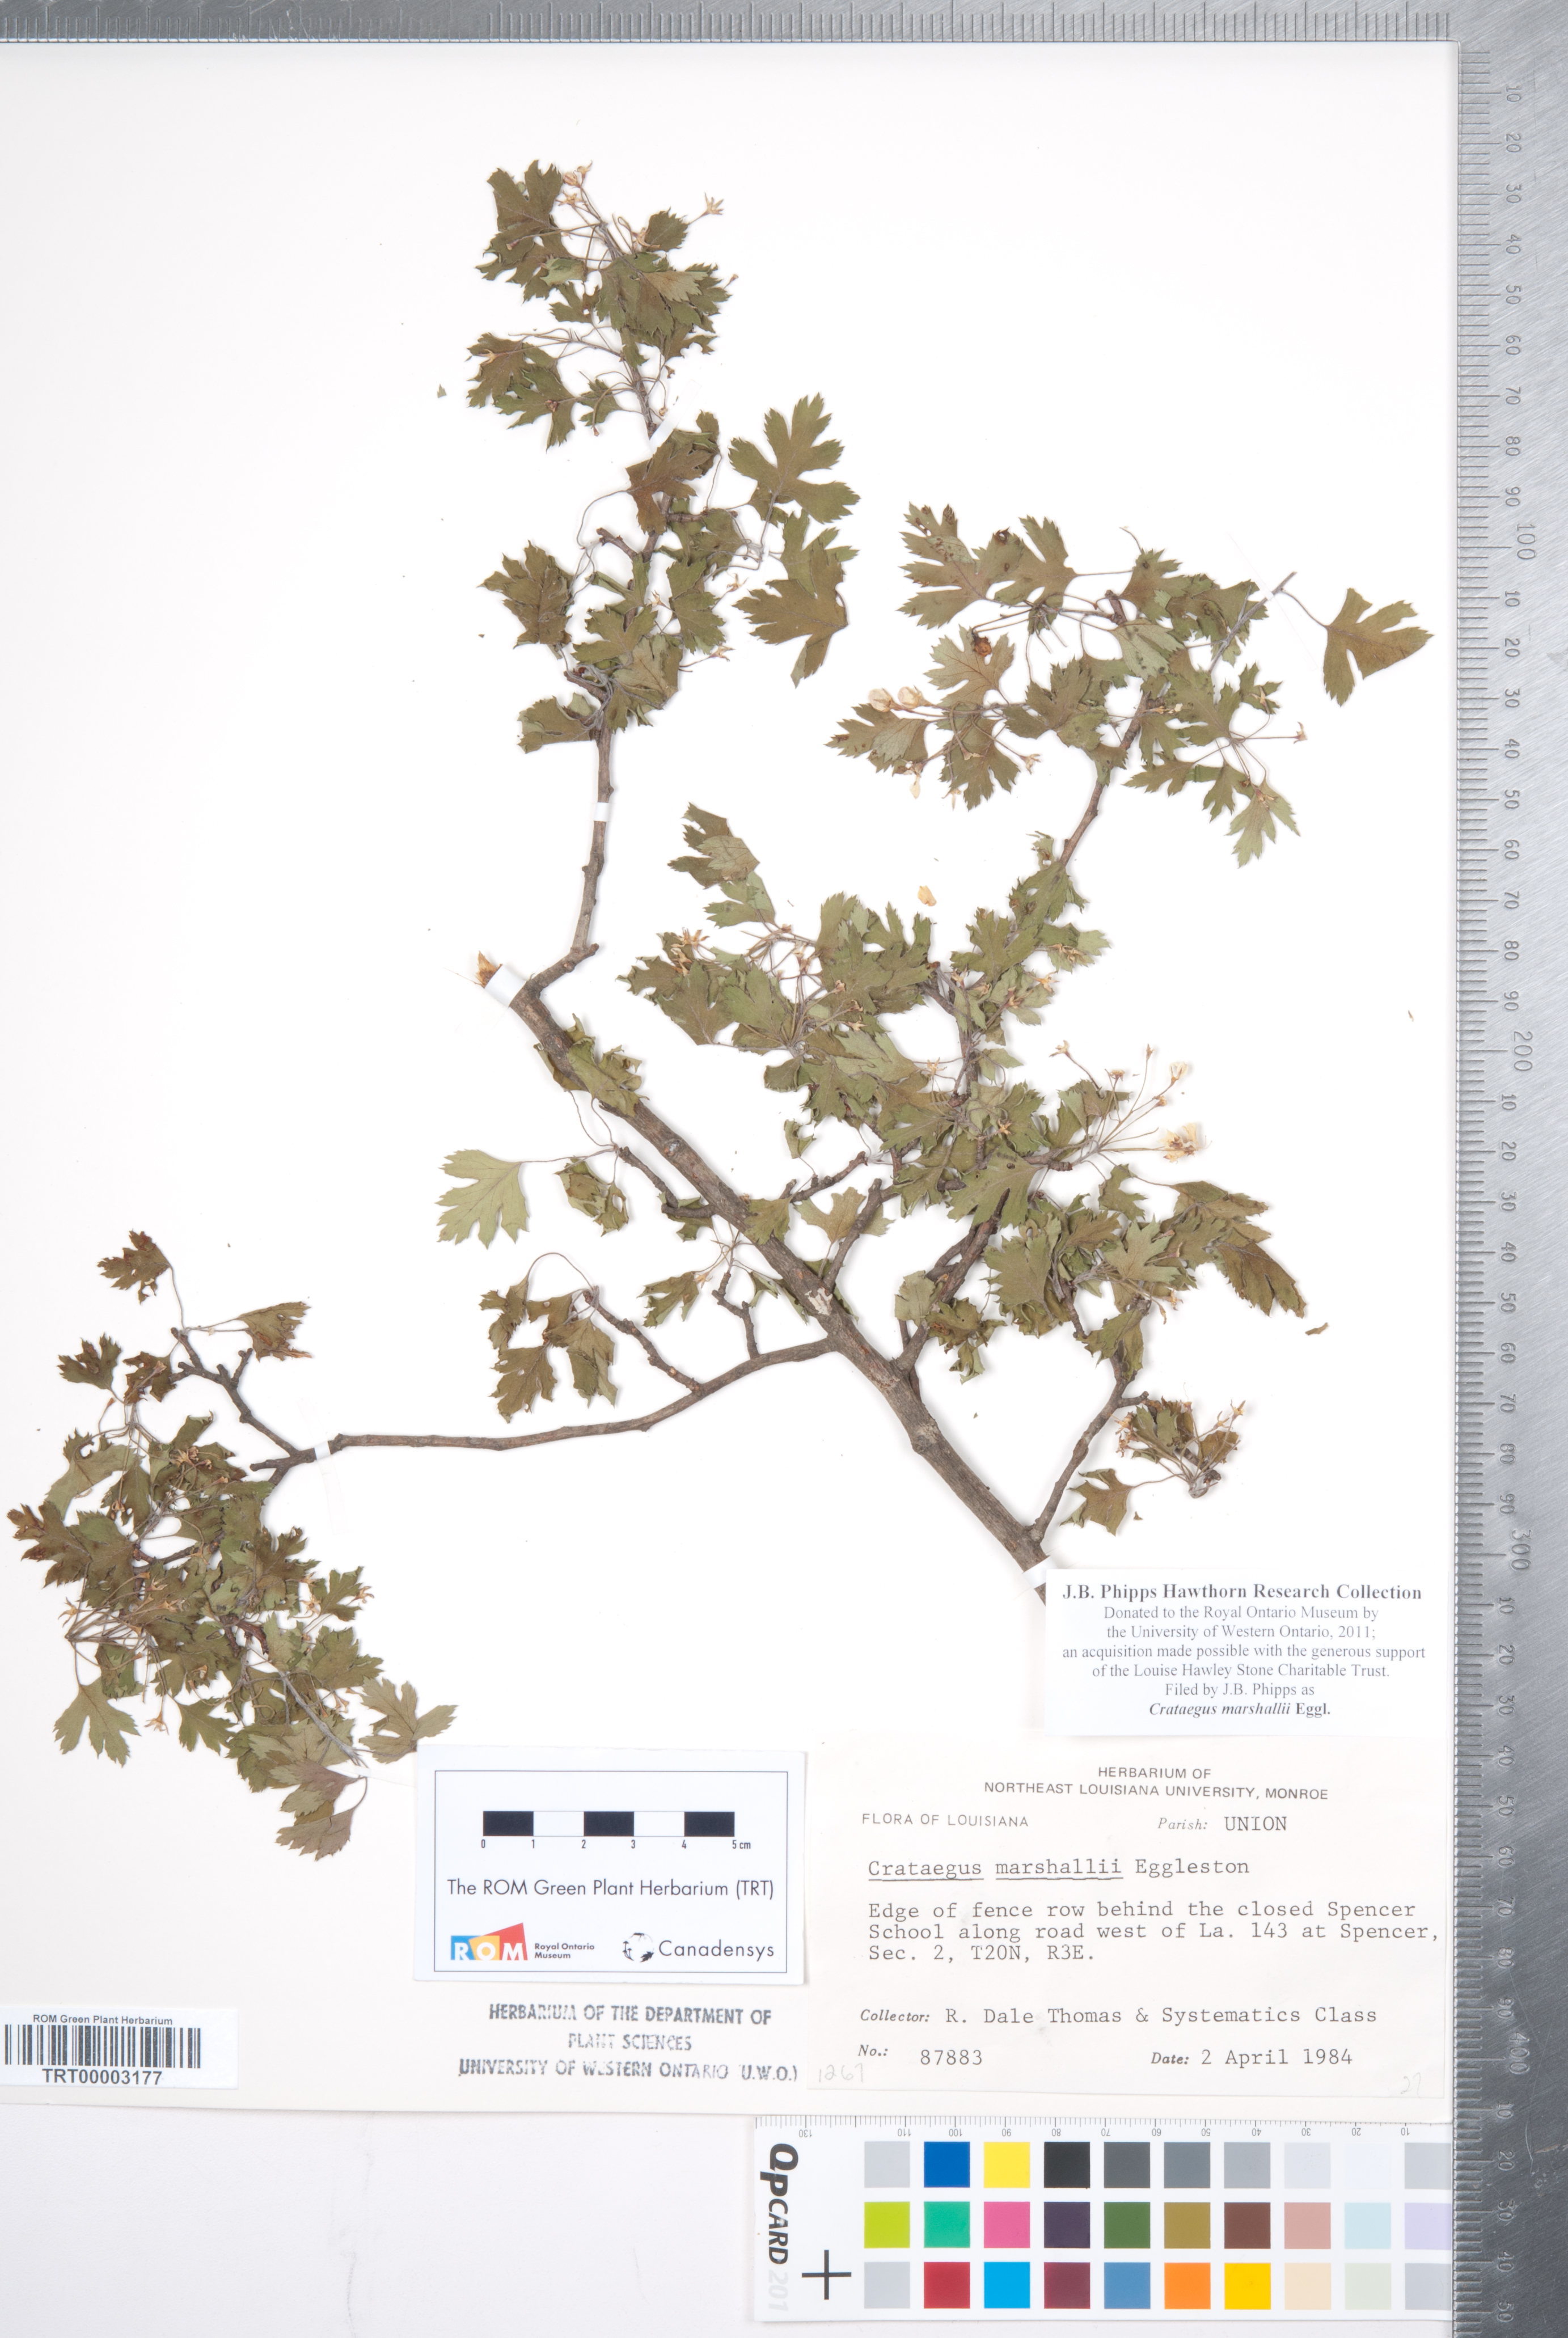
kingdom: Plantae
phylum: Tracheophyta
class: Magnoliopsida
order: Rosales
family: Rosaceae
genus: Crataegus
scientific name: Crataegus marshallii
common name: Parsley-hawthorn
